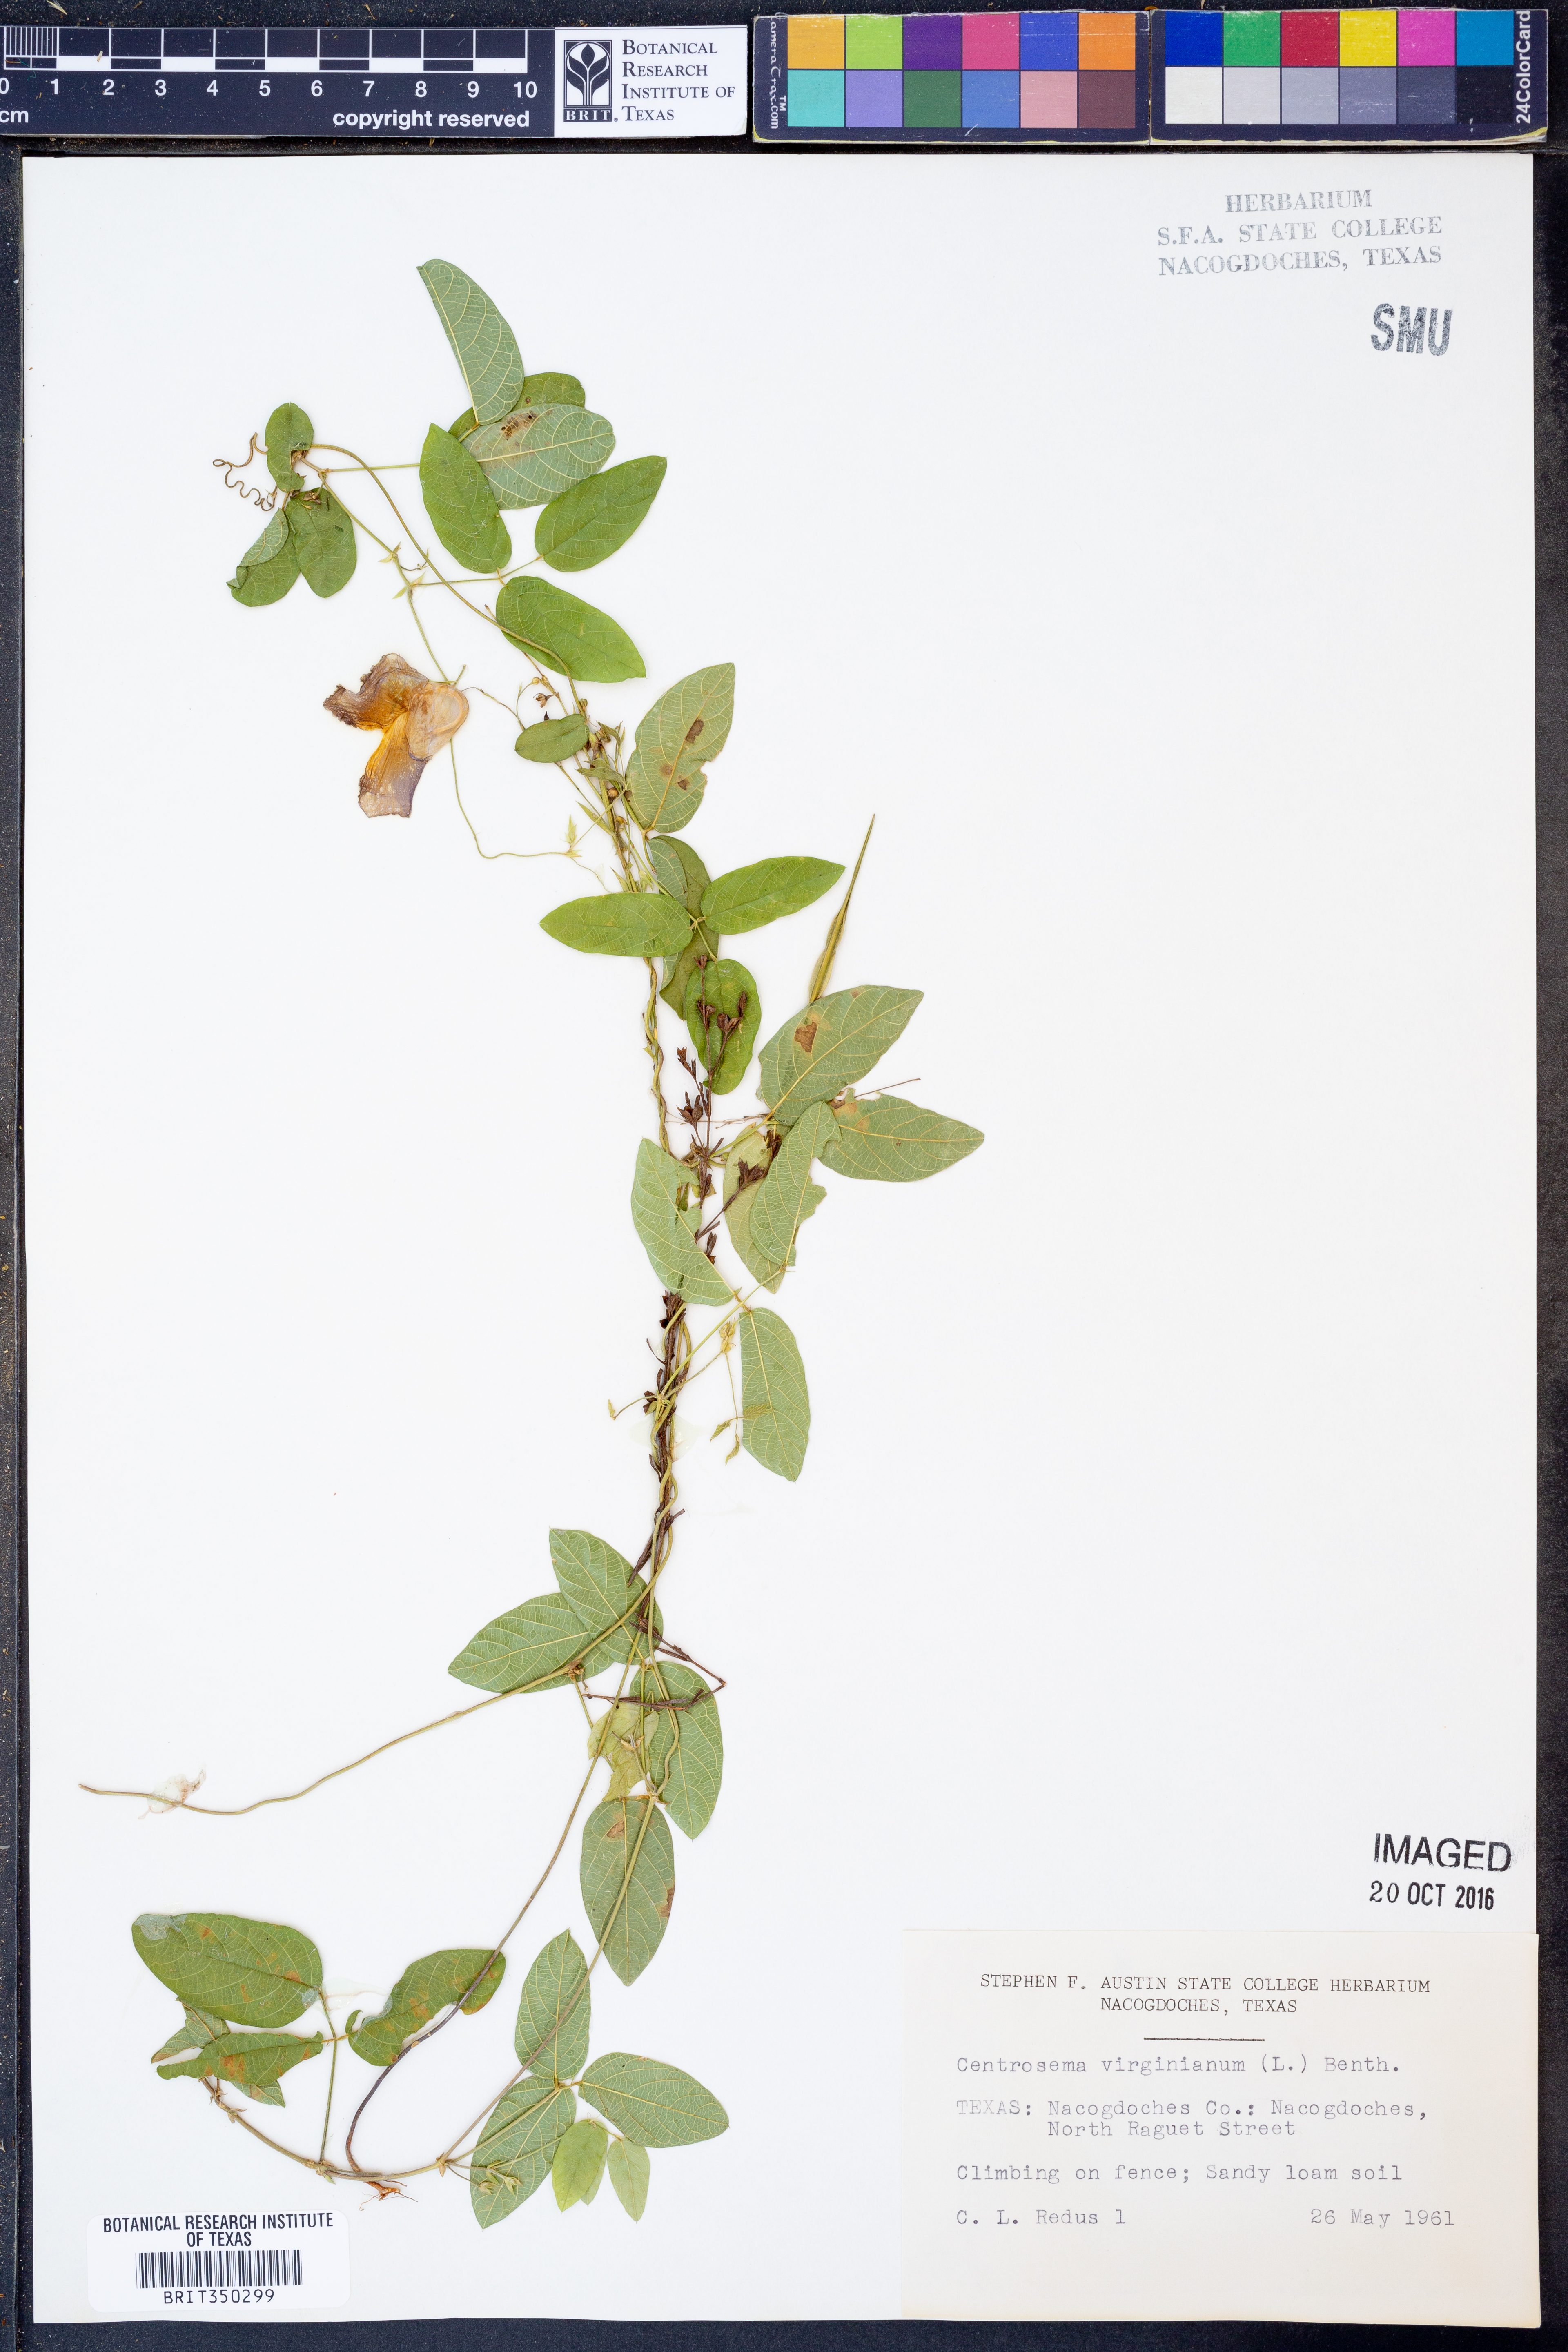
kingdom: Plantae
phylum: Tracheophyta
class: Magnoliopsida
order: Fabales
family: Fabaceae
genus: Centrosema
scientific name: Centrosema virginianum
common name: Butterfly-pea
